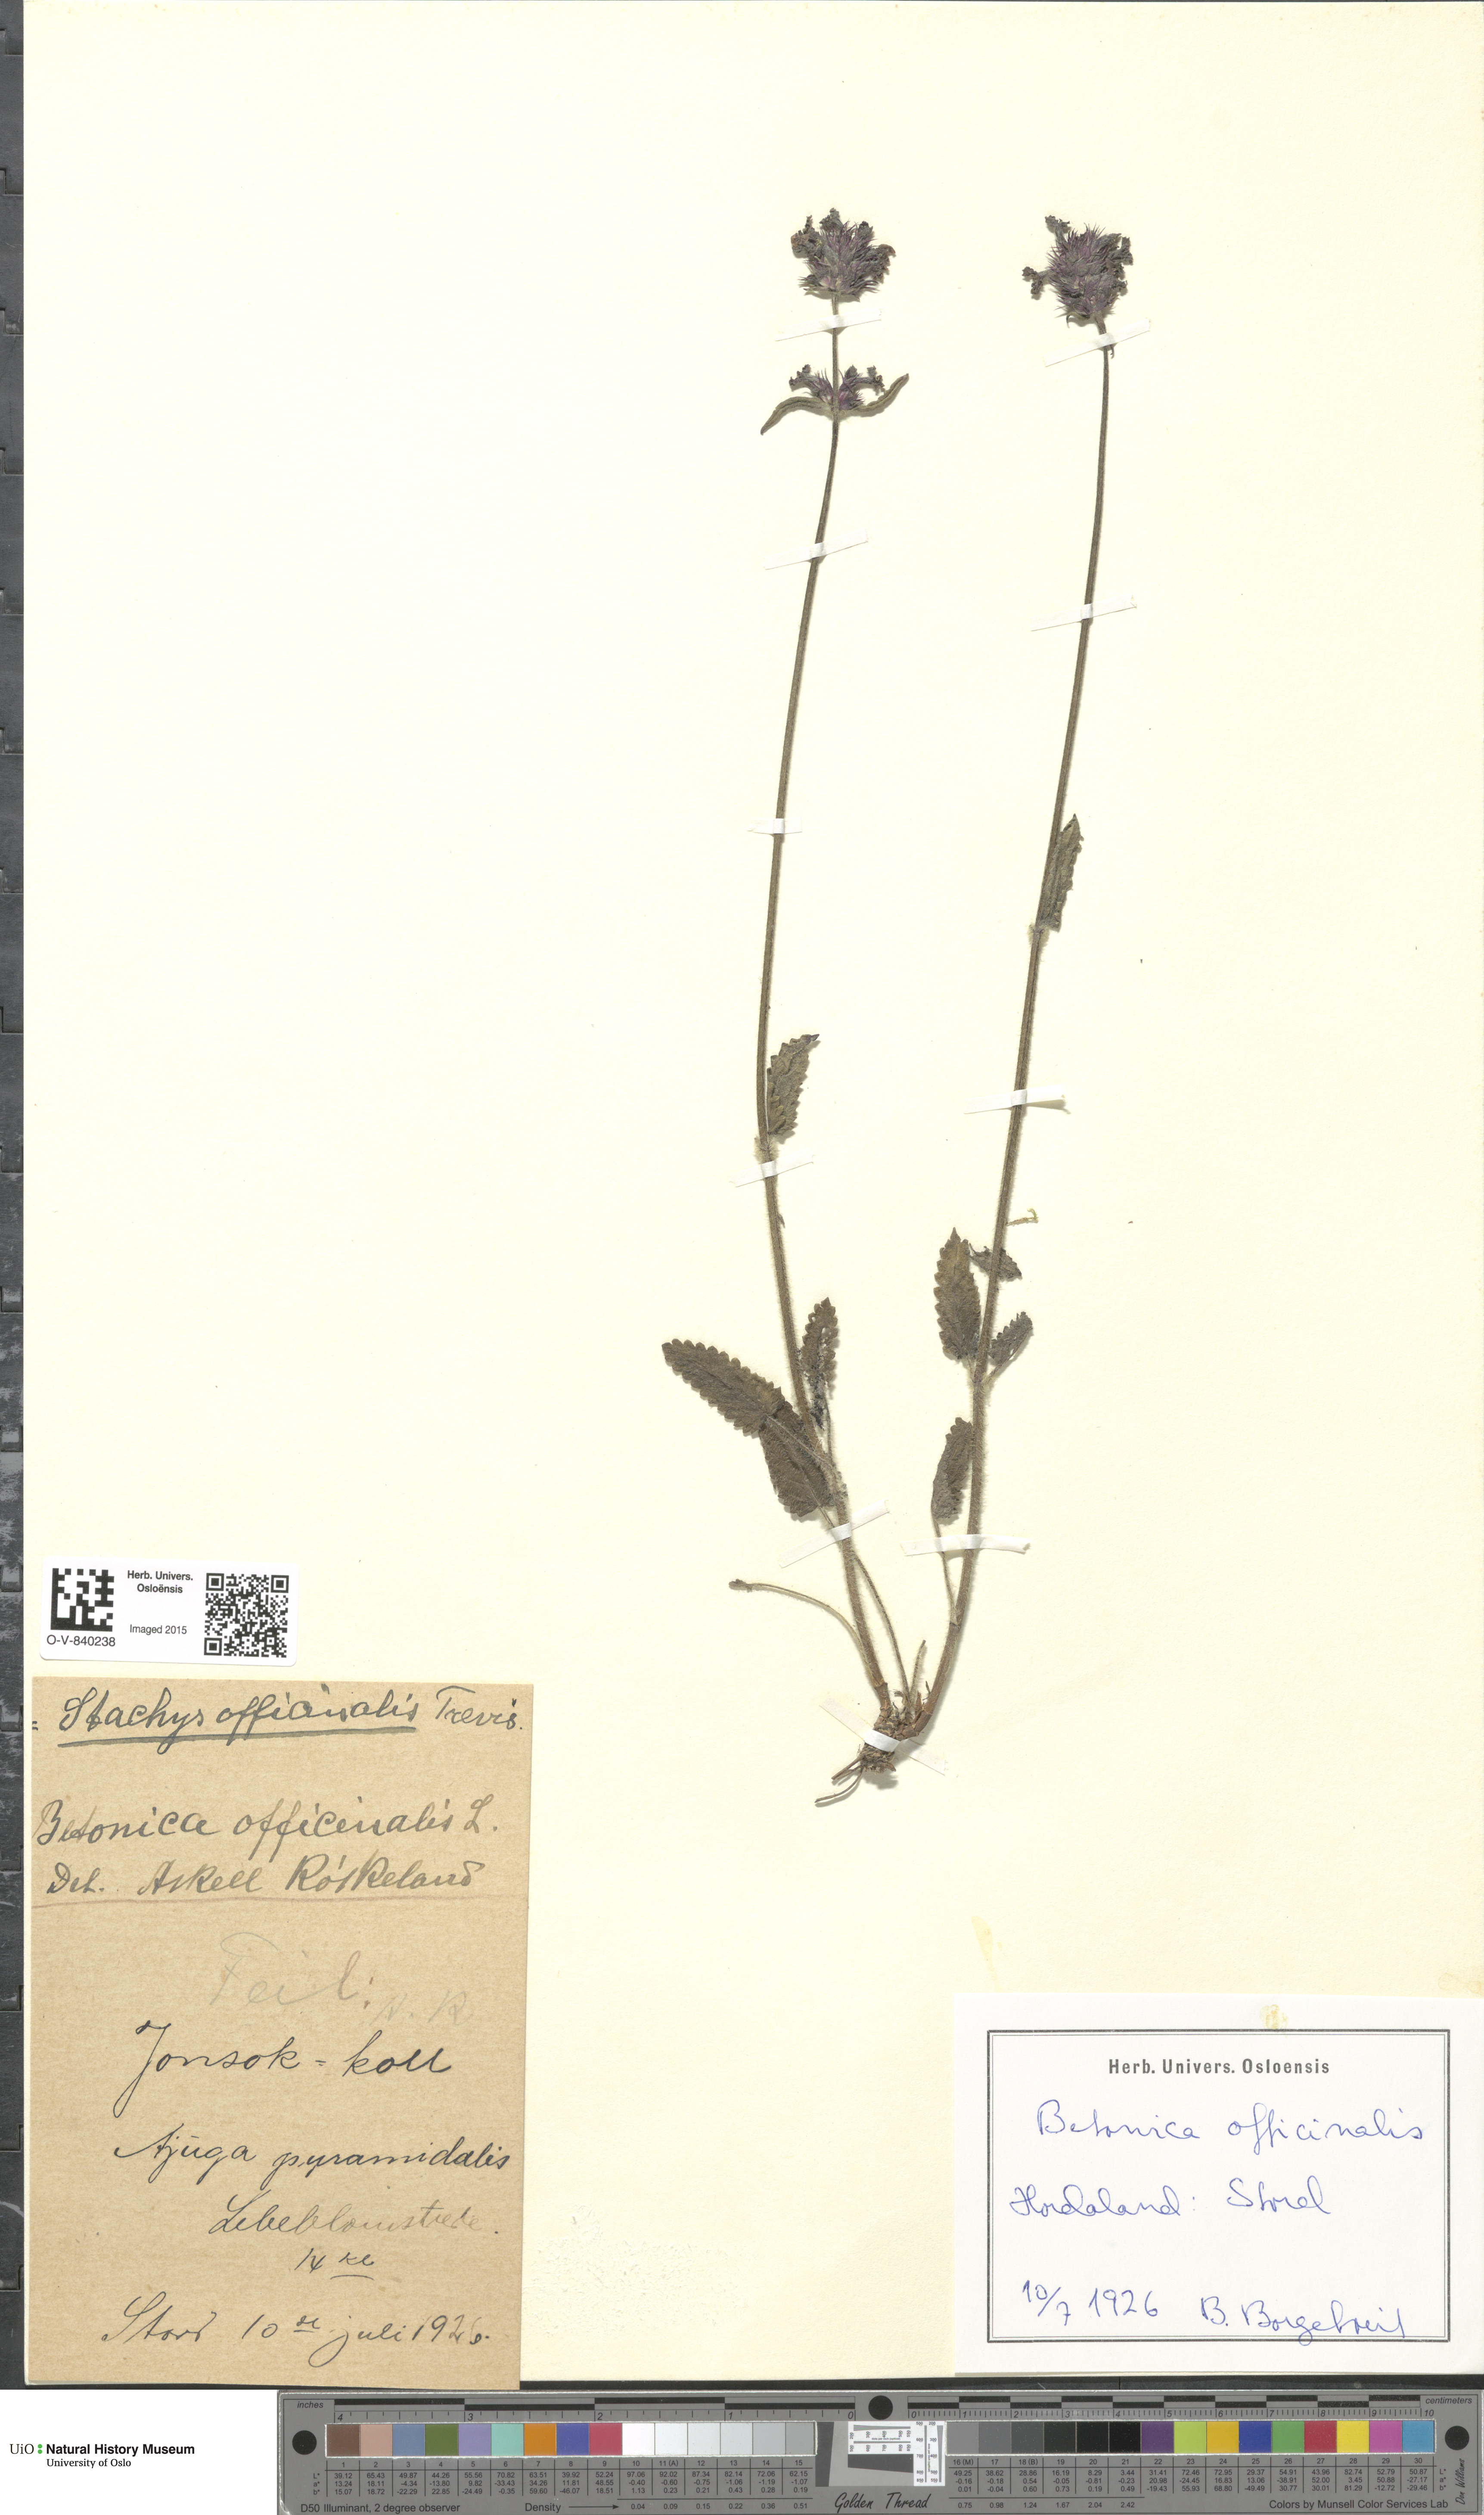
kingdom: Plantae
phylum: Tracheophyta
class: Magnoliopsida
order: Lamiales
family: Lamiaceae
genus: Betonica
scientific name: Betonica officinalis
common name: Bishop's-wort
